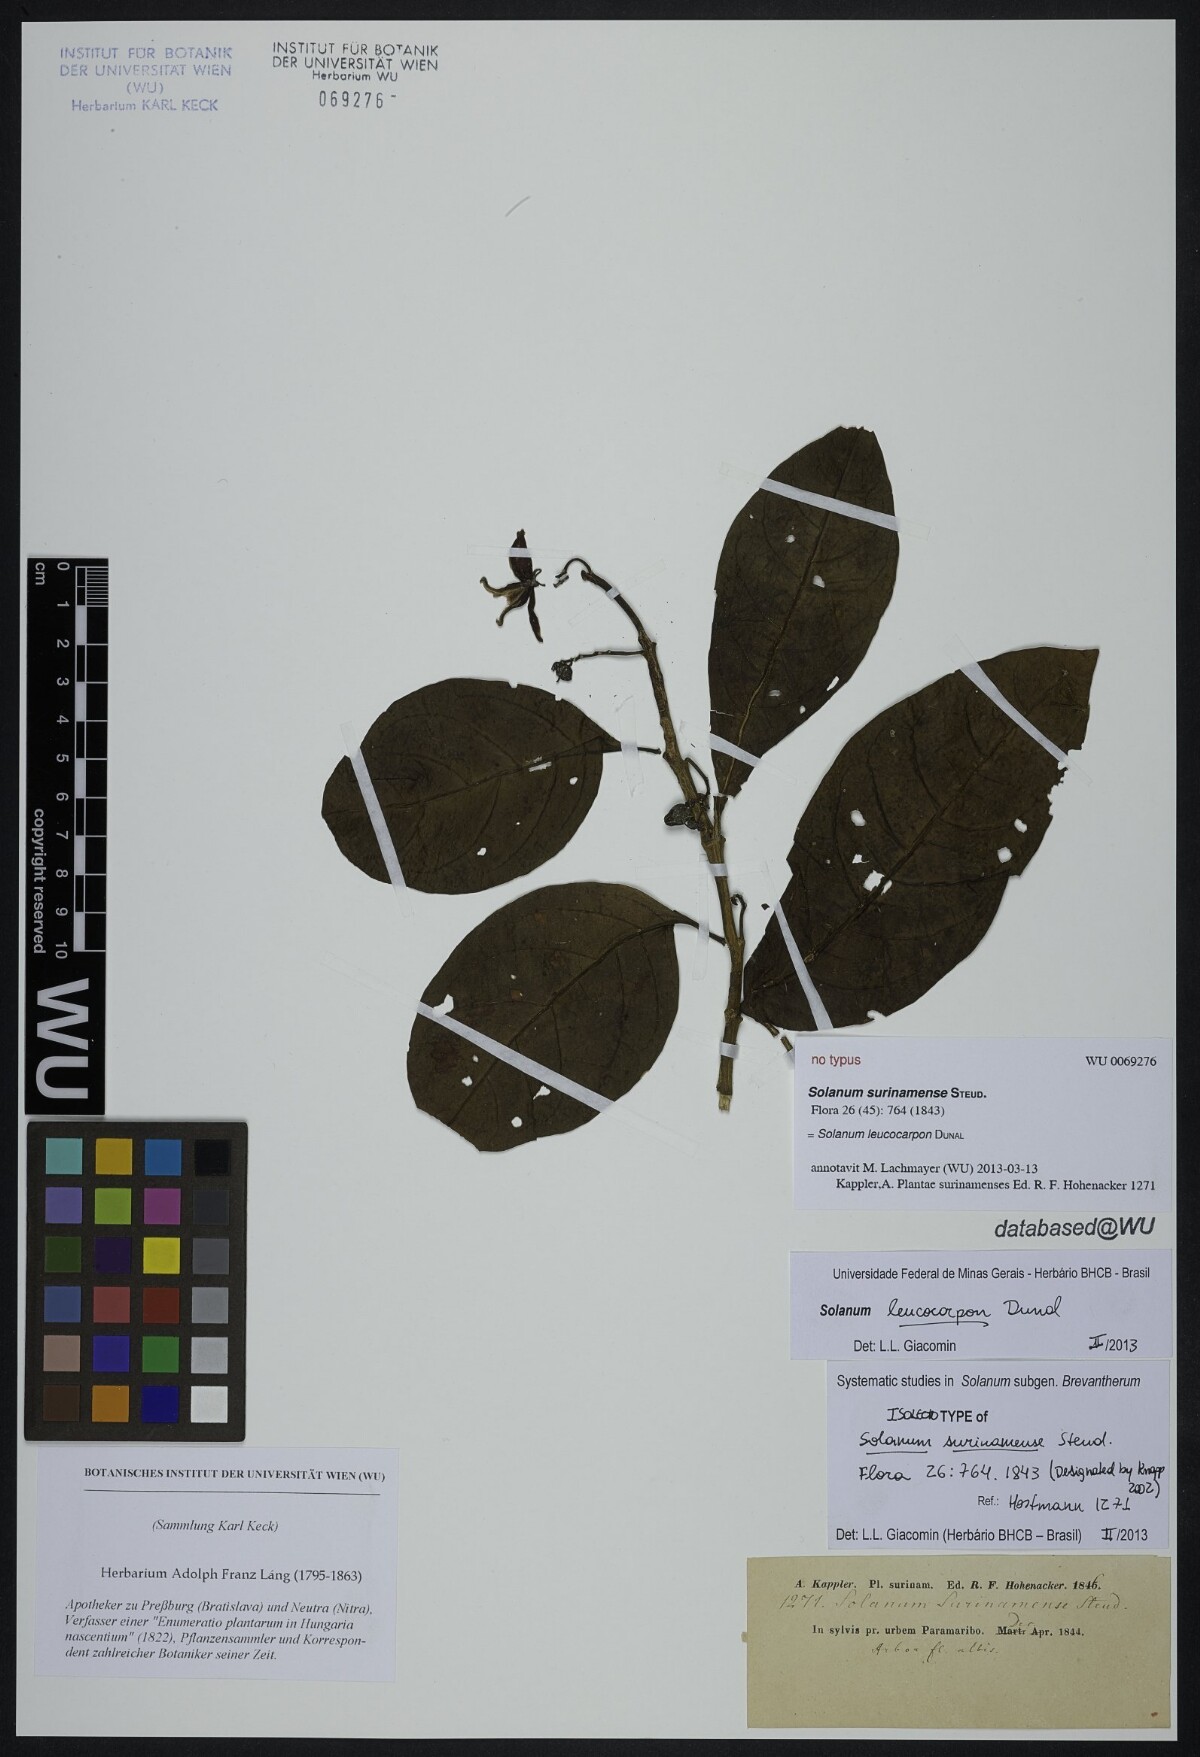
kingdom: Plantae
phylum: Tracheophyta
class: Magnoliopsida
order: Solanales
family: Solanaceae
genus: Solanum
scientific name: Solanum leucocarpon
